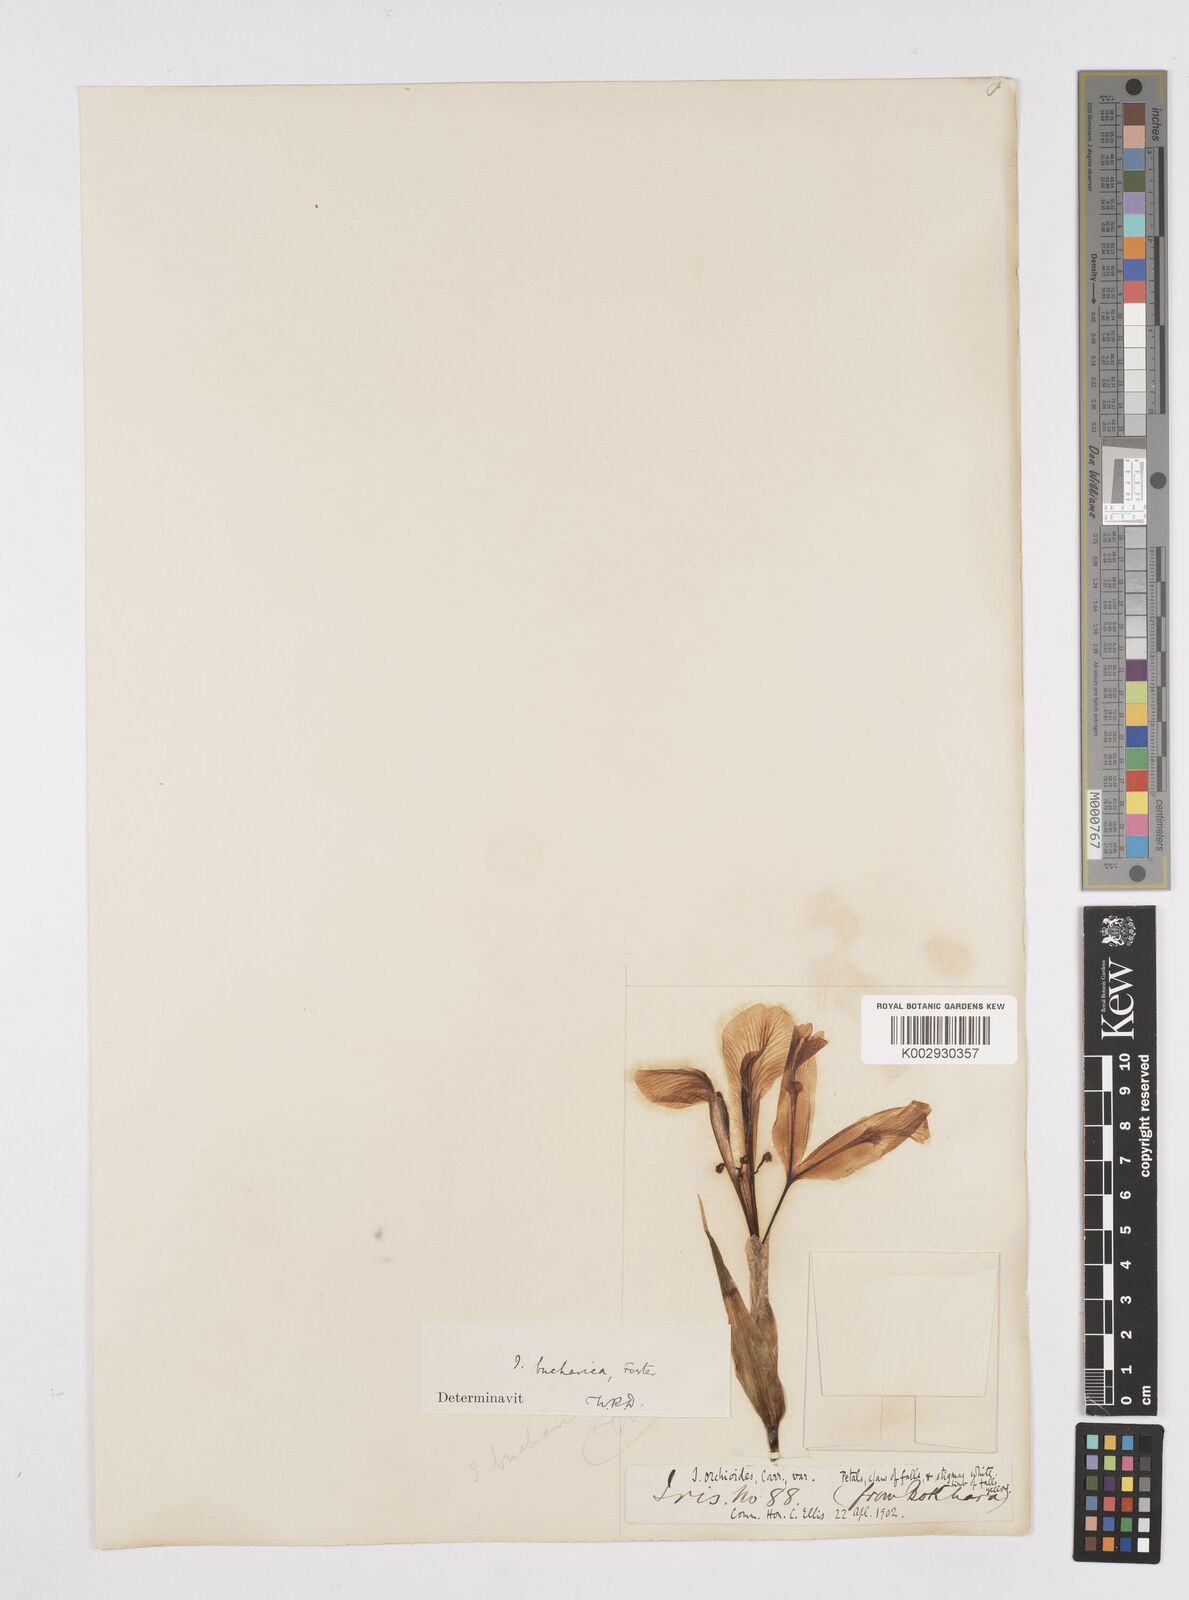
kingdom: Plantae
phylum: Tracheophyta
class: Liliopsida
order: Asparagales
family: Iridaceae
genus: Iris
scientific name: Iris bucharica
